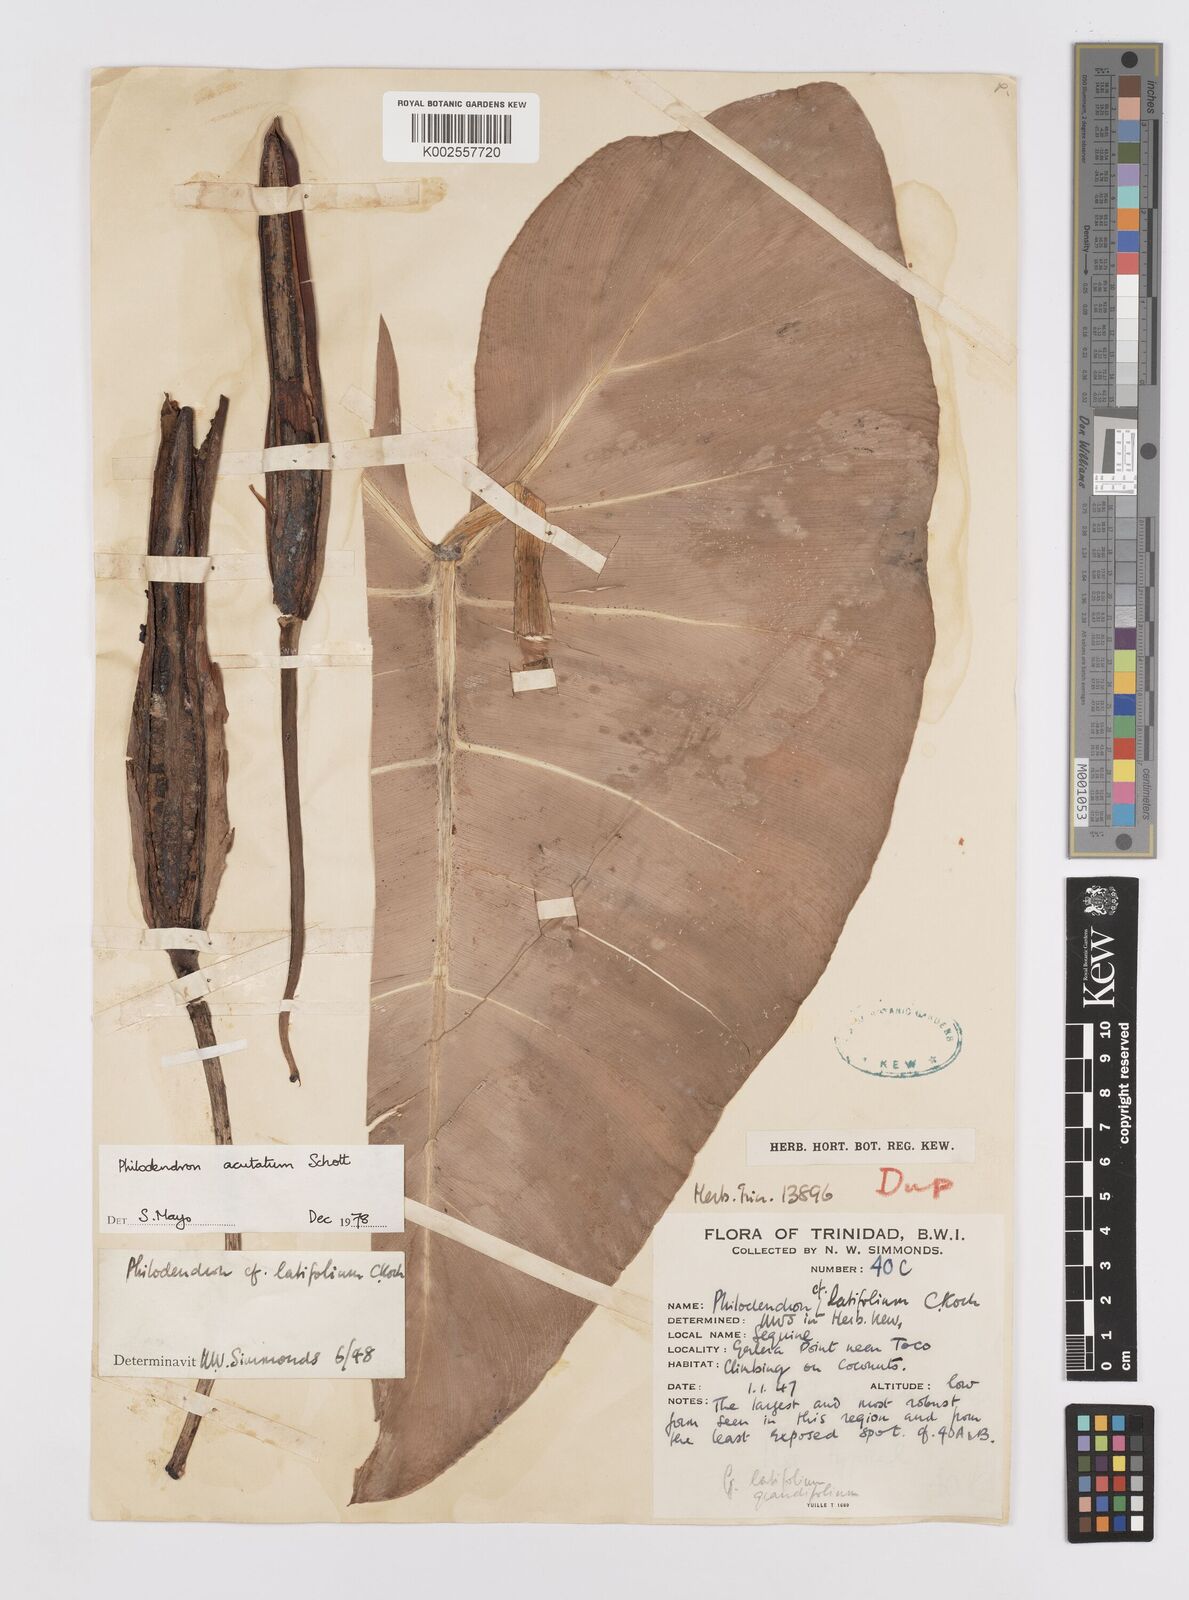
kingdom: Plantae
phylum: Tracheophyta
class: Liliopsida
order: Alismatales
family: Araceae
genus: Philodendron
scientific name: Philodendron quinquenervium
